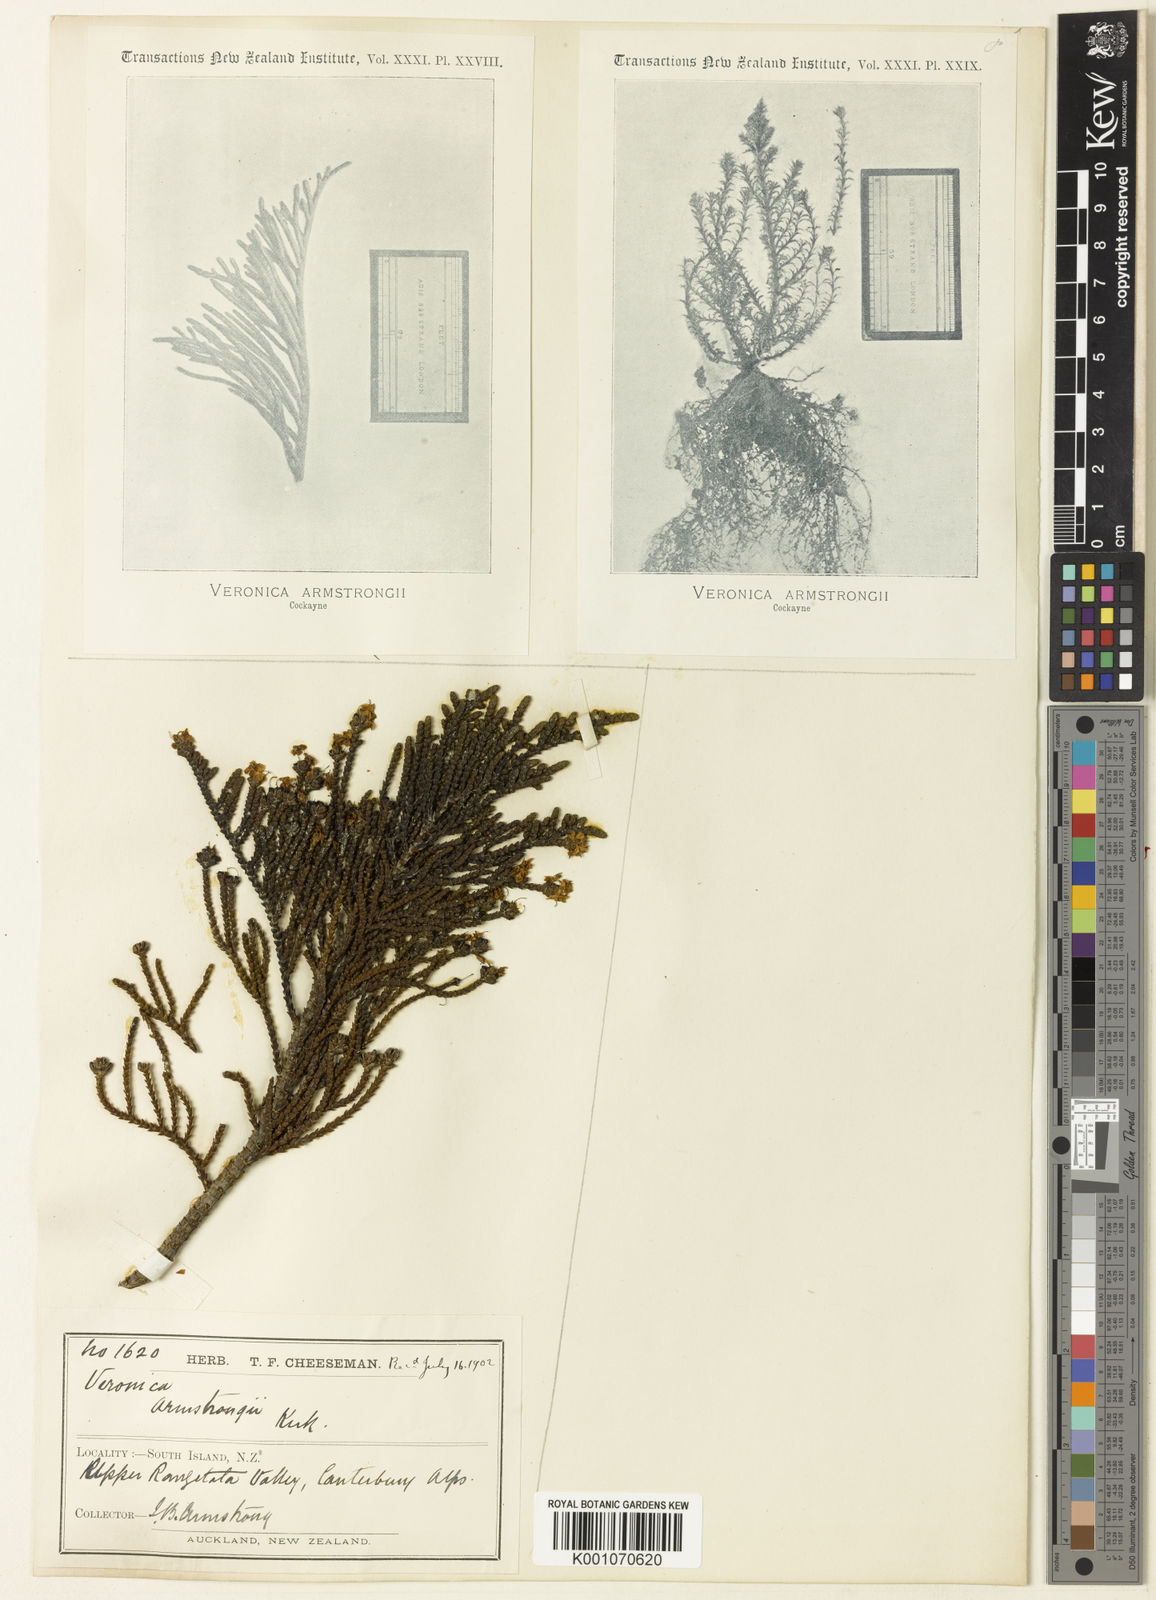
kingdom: Plantae
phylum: Tracheophyta
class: Magnoliopsida
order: Lamiales
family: Plantaginaceae
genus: Veronica
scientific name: Veronica armstrongii
